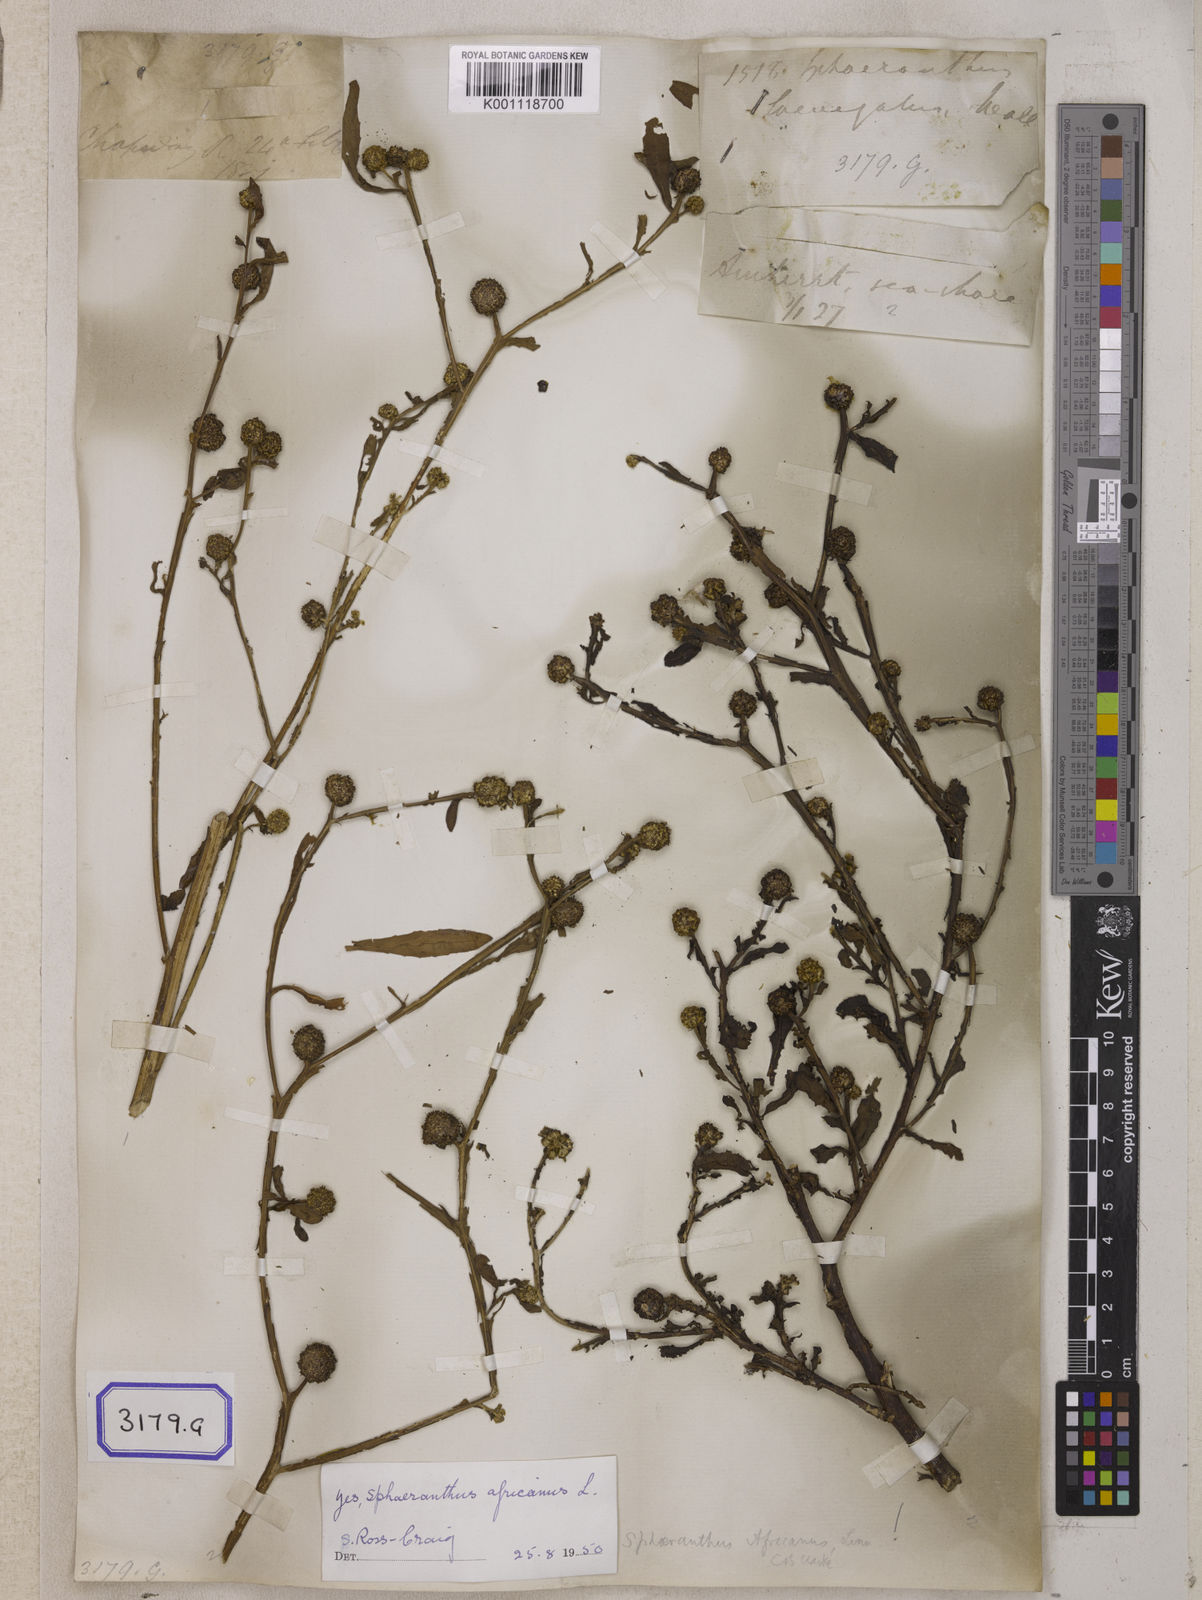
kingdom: Plantae
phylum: Tracheophyta
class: Magnoliopsida
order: Asterales
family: Asteraceae
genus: Sphaeranthus
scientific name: Sphaeranthus senegalensis
